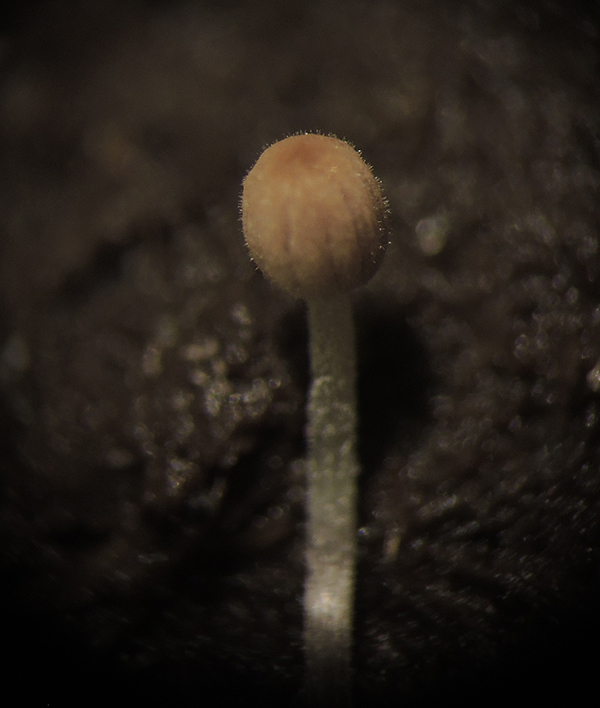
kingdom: Fungi
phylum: Basidiomycota
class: Agaricomycetes
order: Agaricales
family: Psathyrellaceae
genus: Tulosesus
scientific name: Tulosesus pellucidus
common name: skær blækhat
